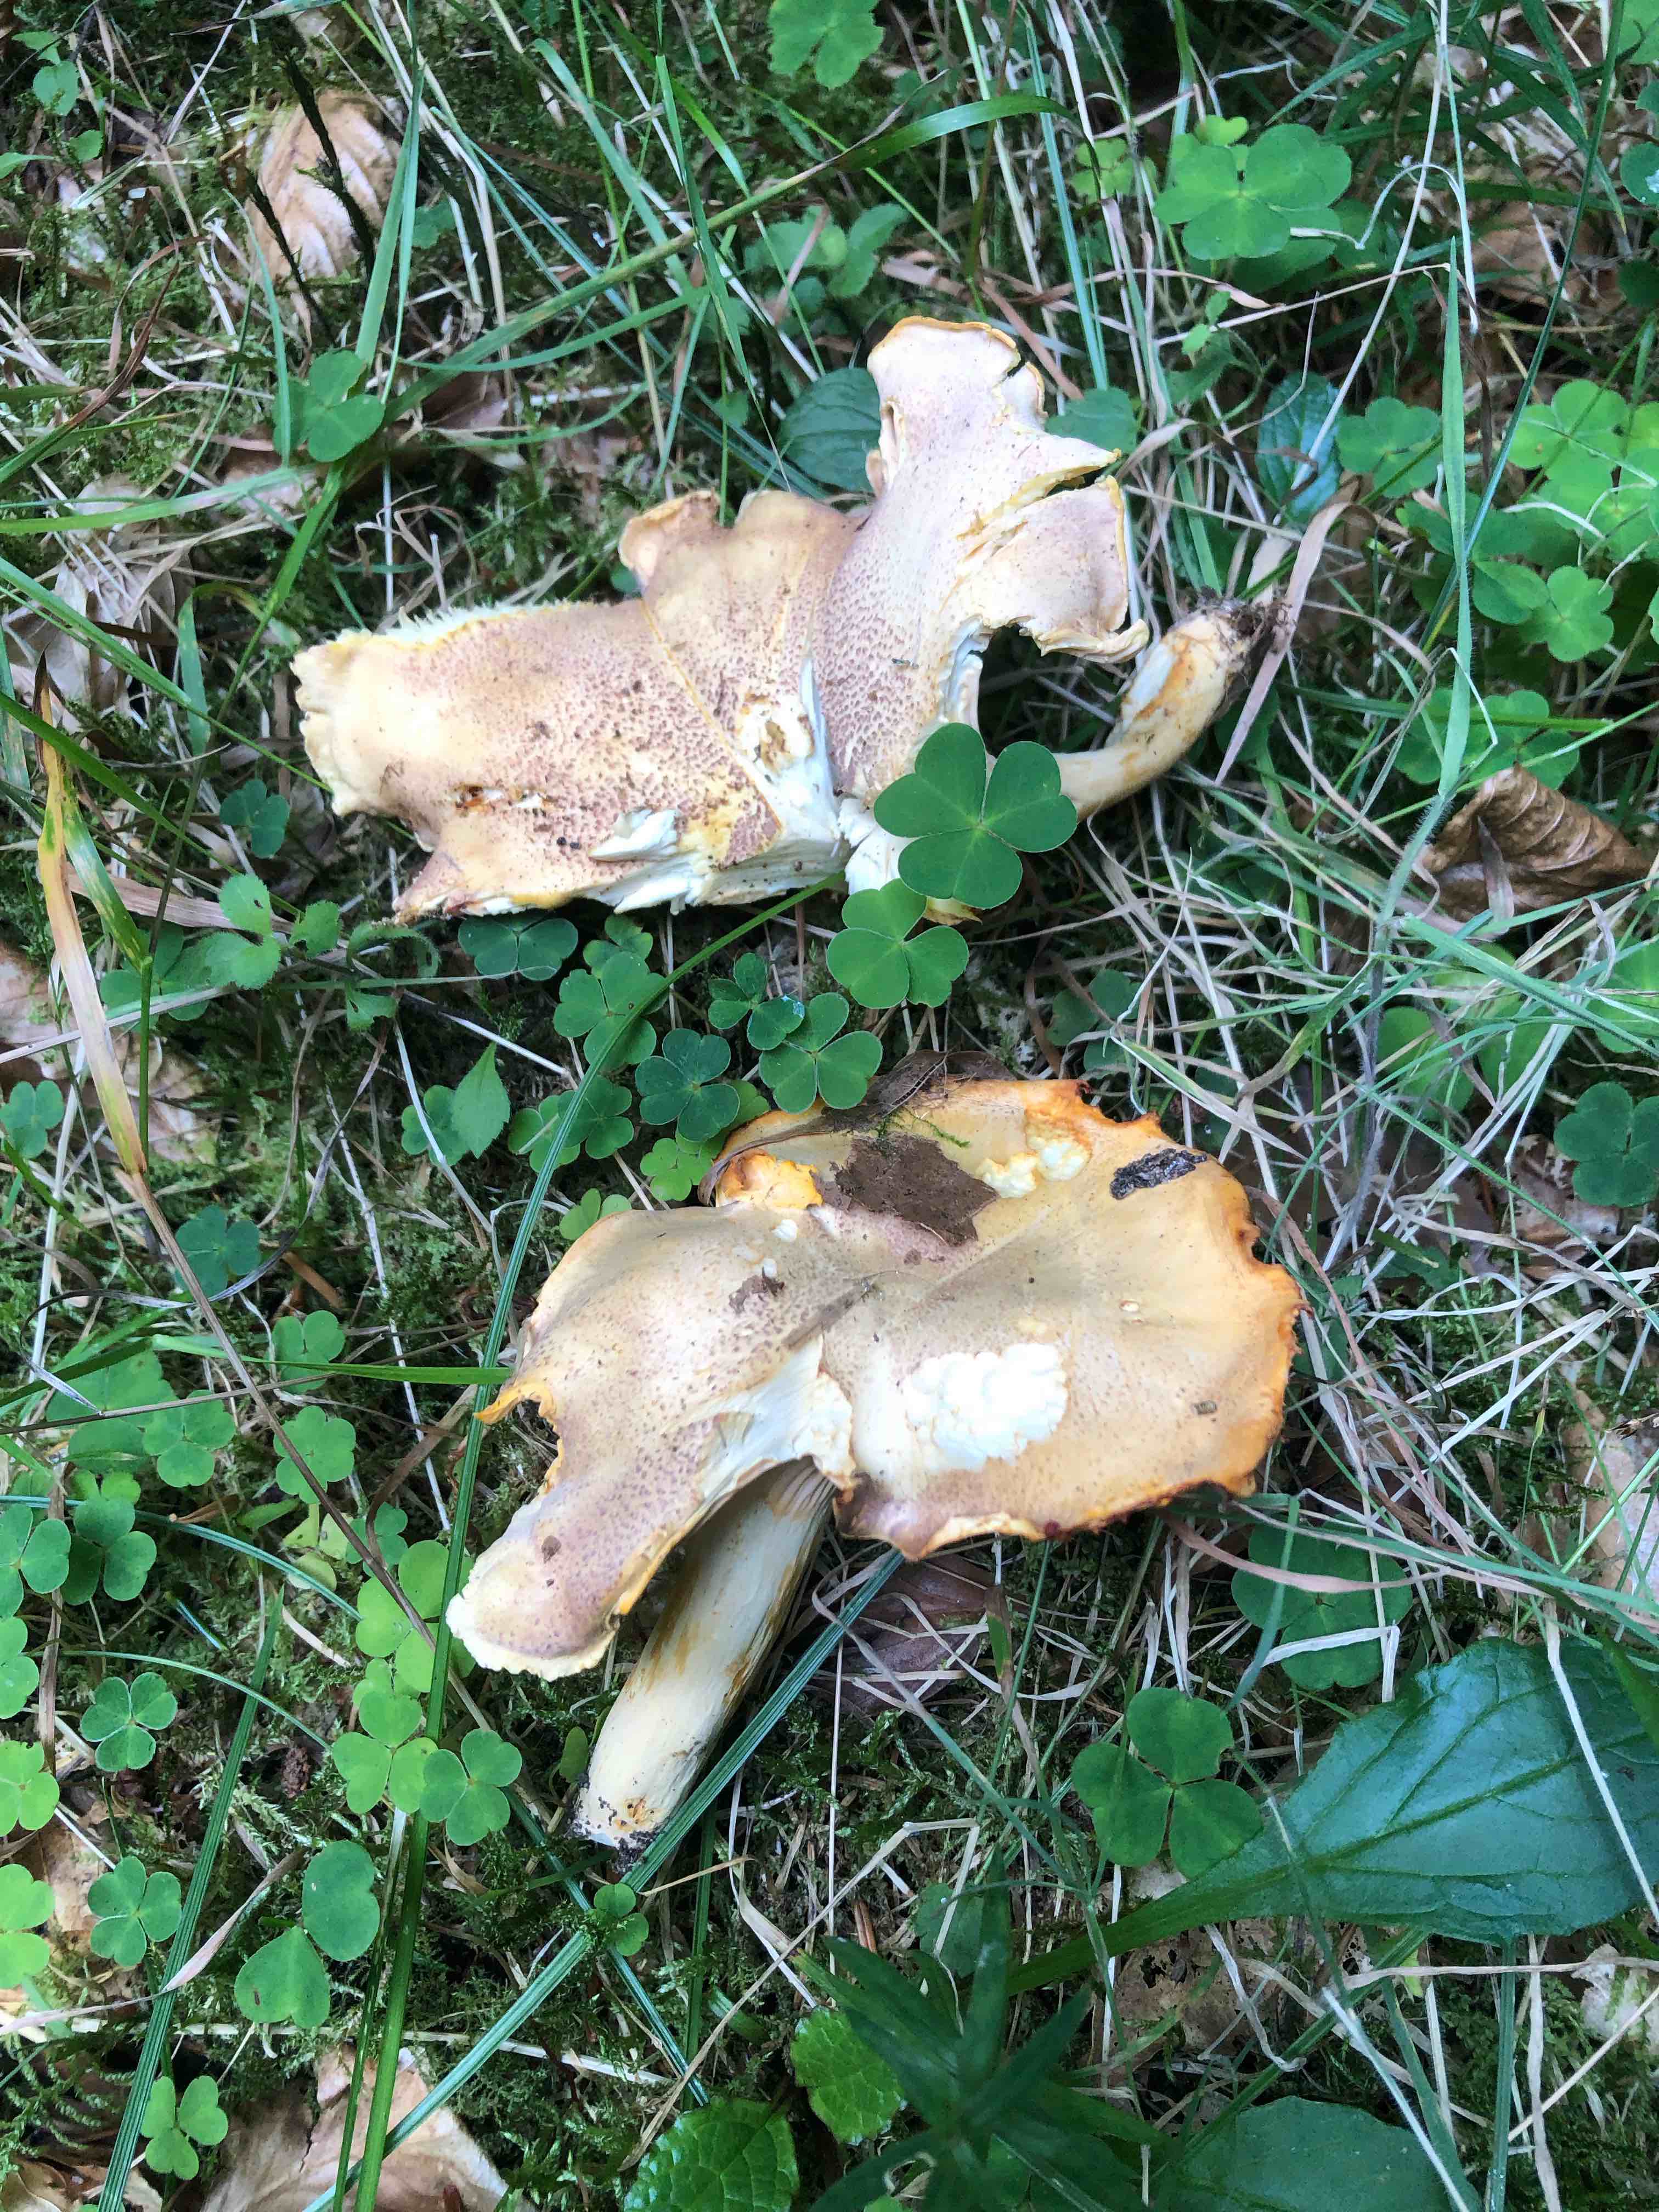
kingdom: Fungi
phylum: Basidiomycota
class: Agaricomycetes
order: Cantharellales
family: Hydnaceae
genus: Cantharellus
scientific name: Cantharellus amethysteus
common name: ametyst-kantarel
